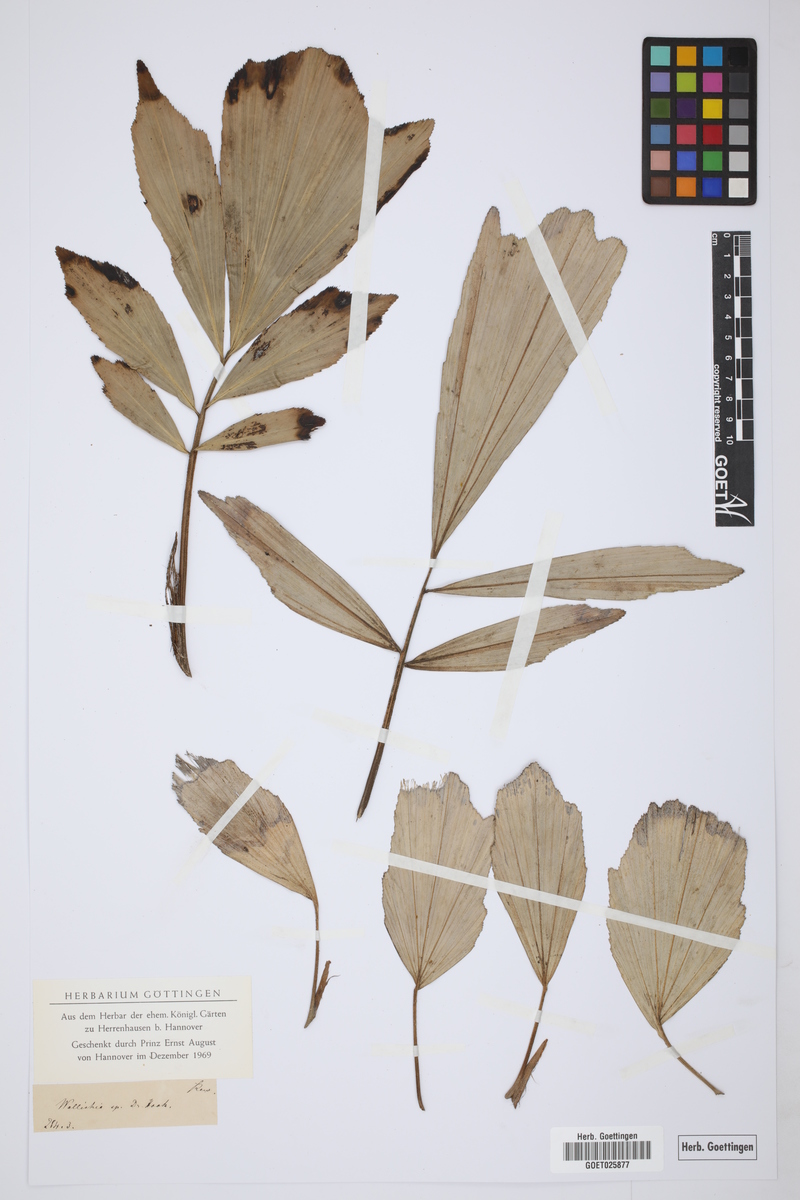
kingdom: Plantae
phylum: Tracheophyta
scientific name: Tracheophyta
